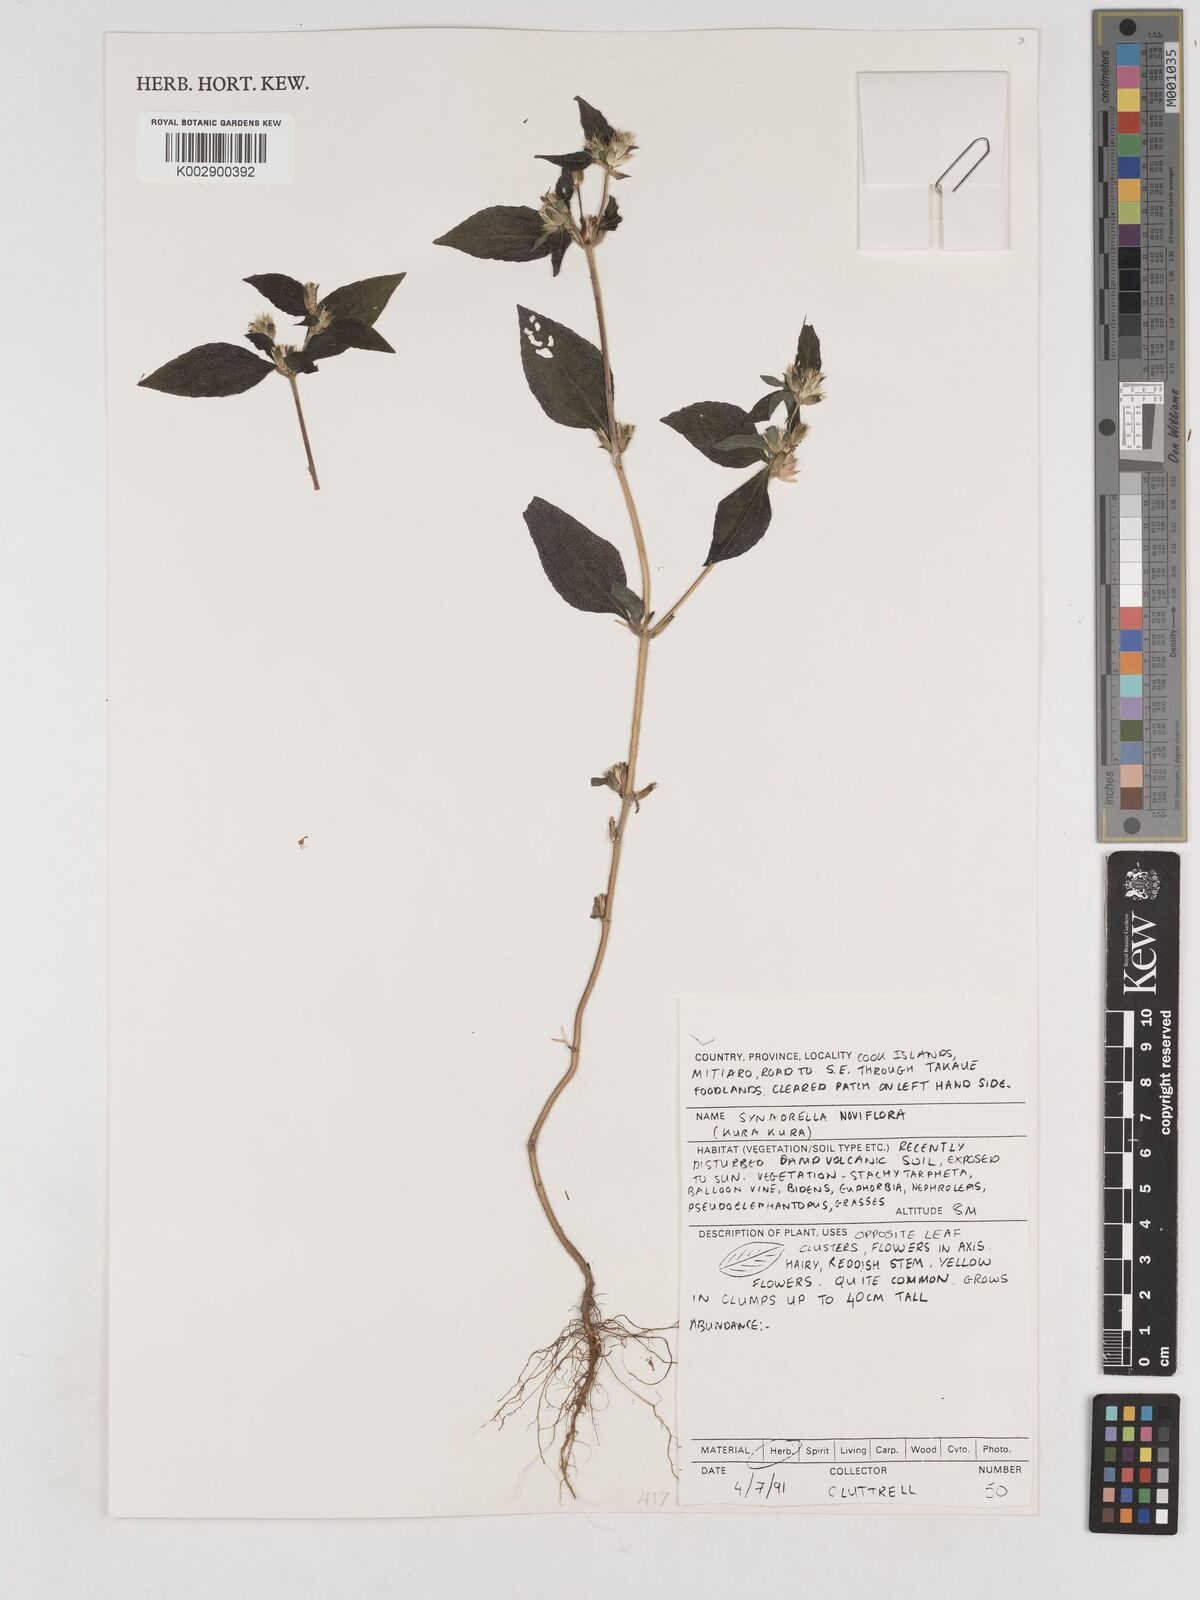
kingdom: Plantae
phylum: Tracheophyta
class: Magnoliopsida
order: Asterales
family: Asteraceae
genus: Synedrella
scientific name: Synedrella nodiflora
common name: Nodeweed
